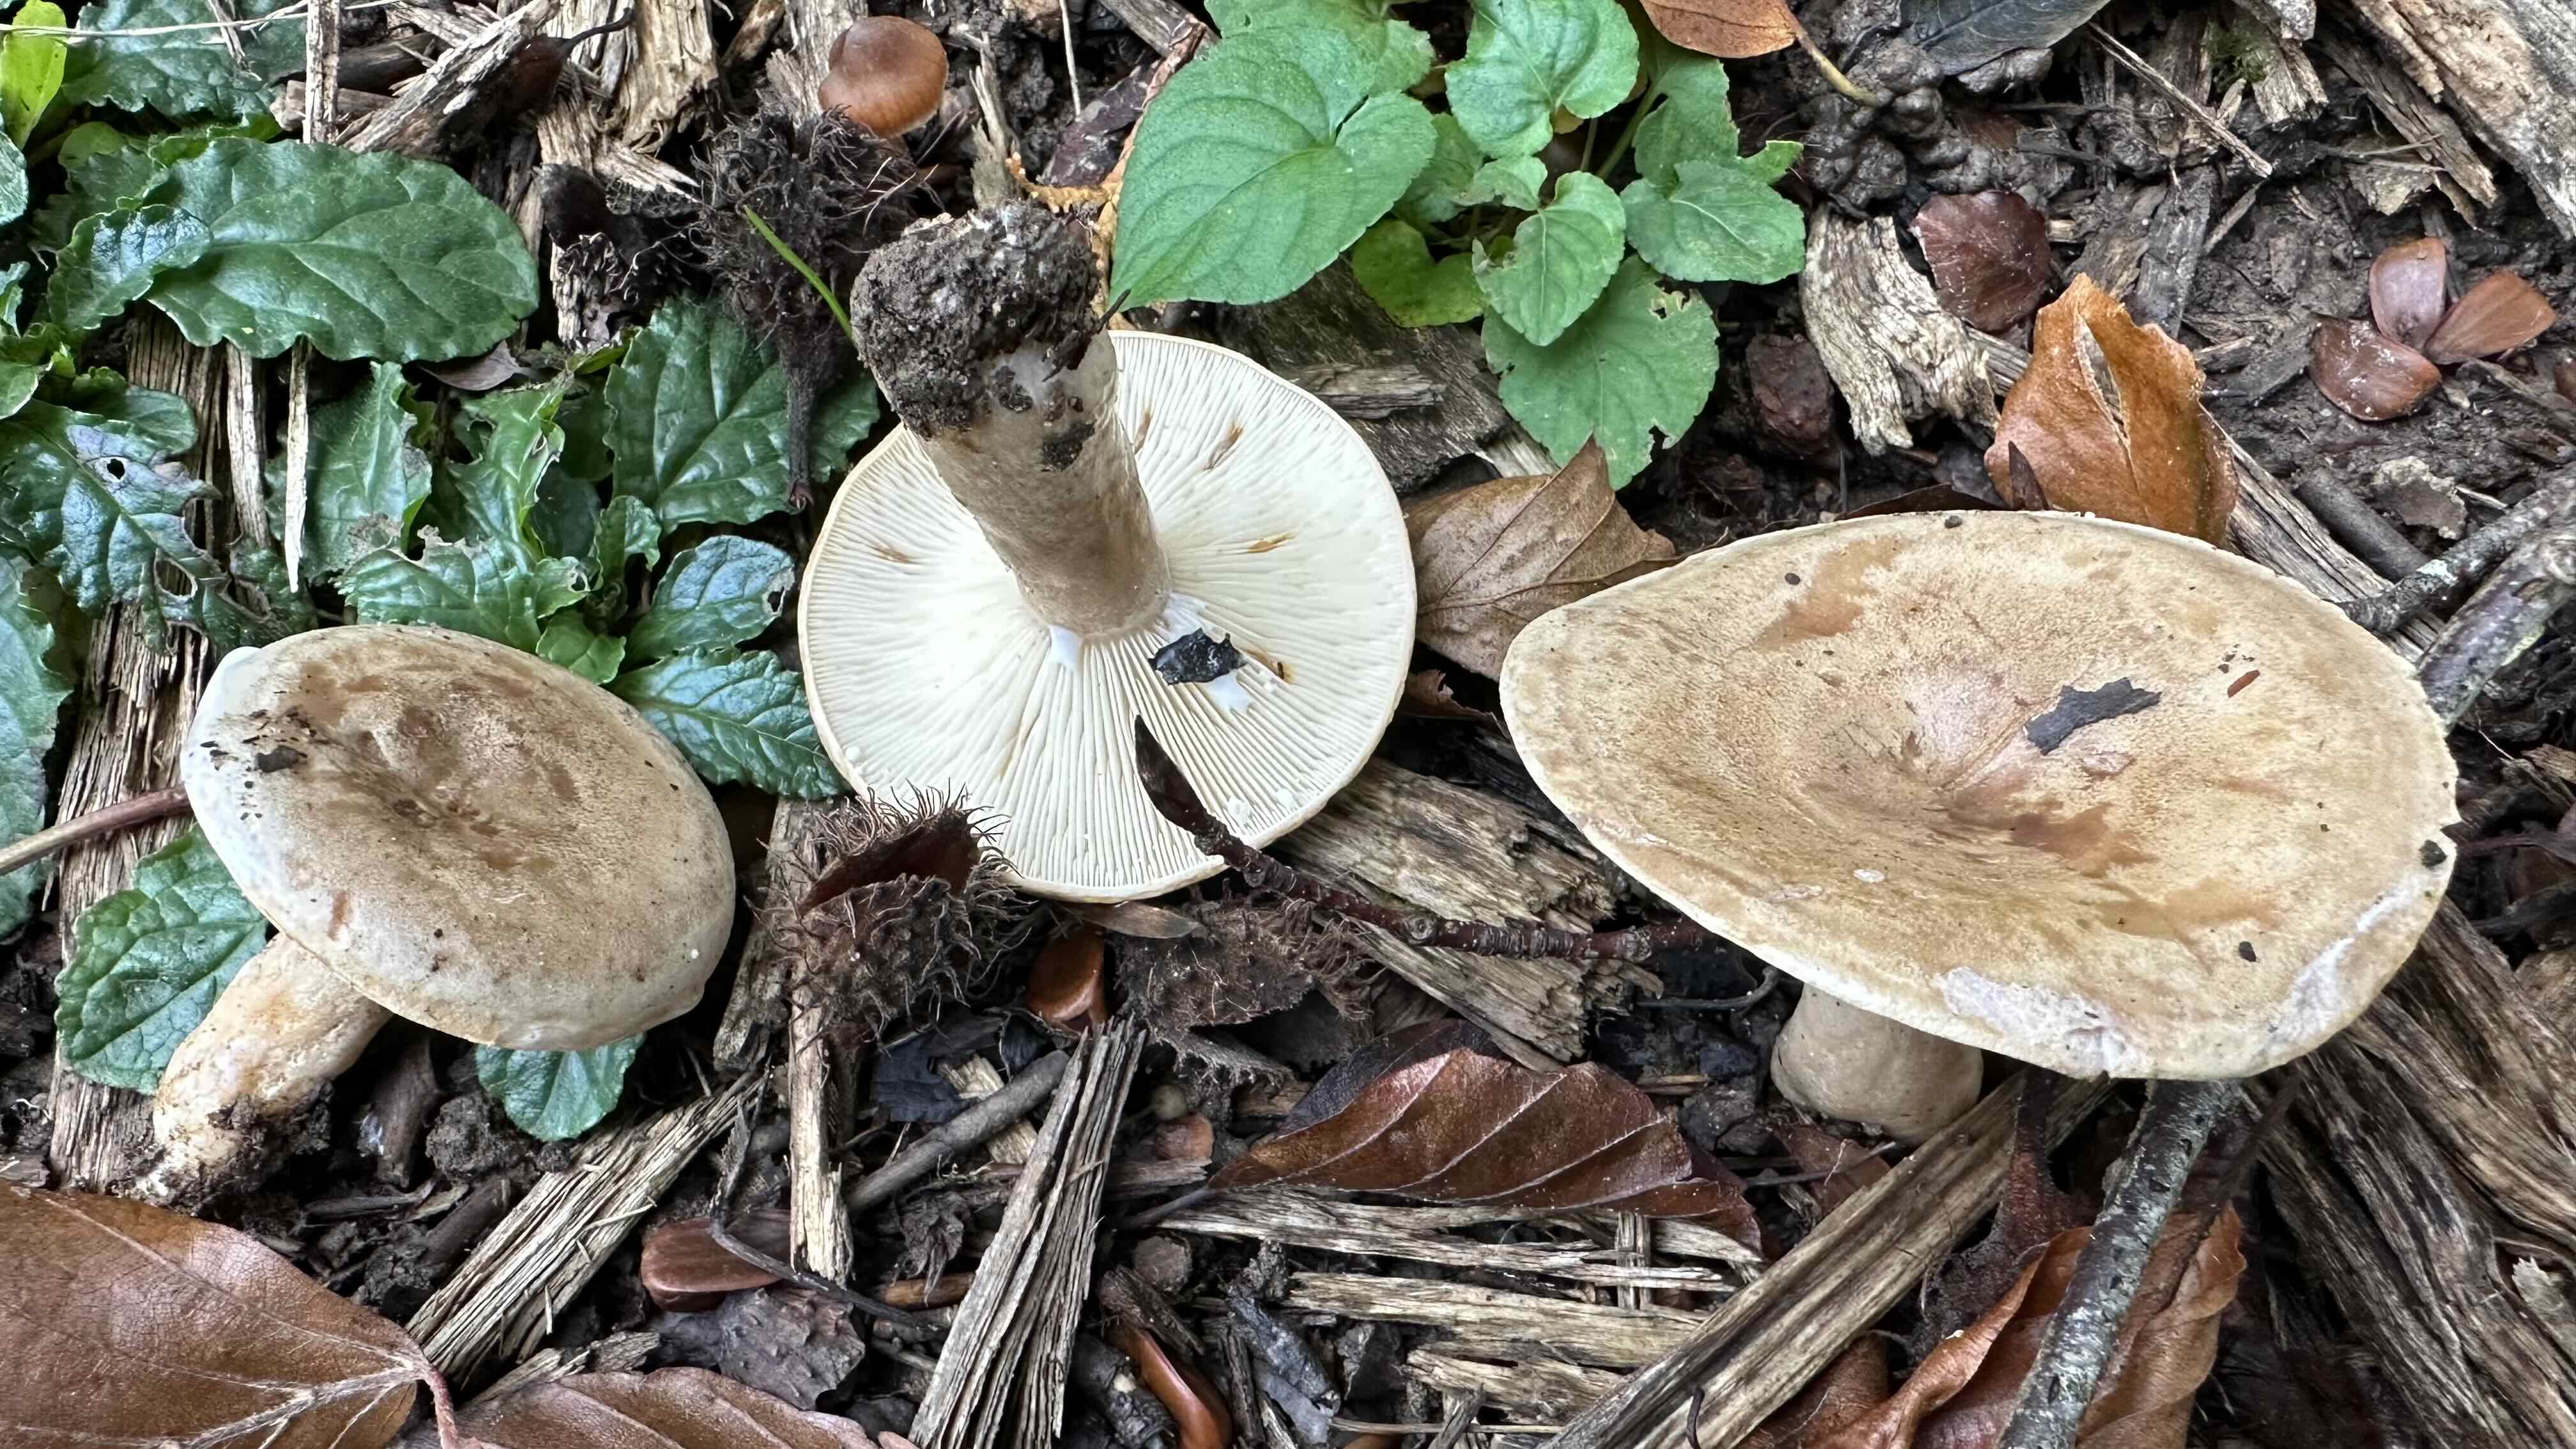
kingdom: Fungi
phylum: Basidiomycota
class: Agaricomycetes
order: Russulales
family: Russulaceae
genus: Lactarius
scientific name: Lactarius fluens
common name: lysrandet mælkehat
